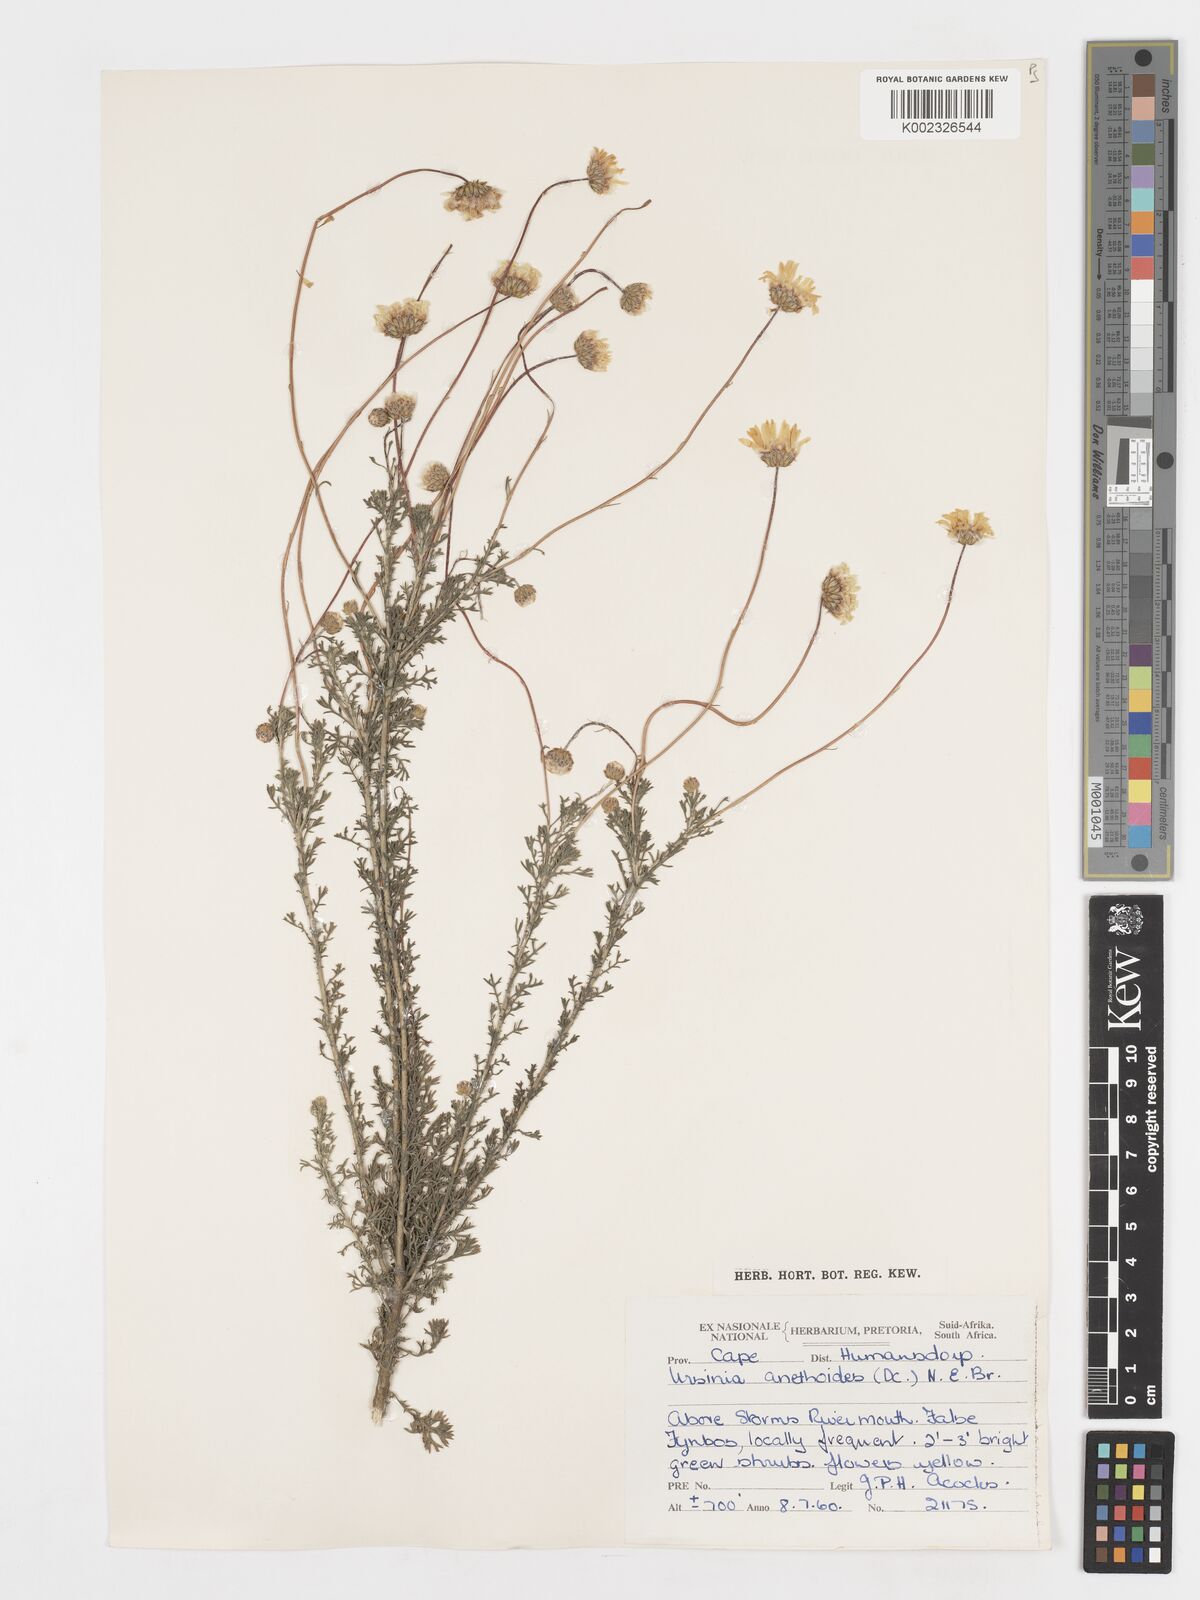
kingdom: Plantae
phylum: Tracheophyta
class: Magnoliopsida
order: Asterales
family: Asteraceae
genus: Ursinia
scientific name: Ursinia anethoides
